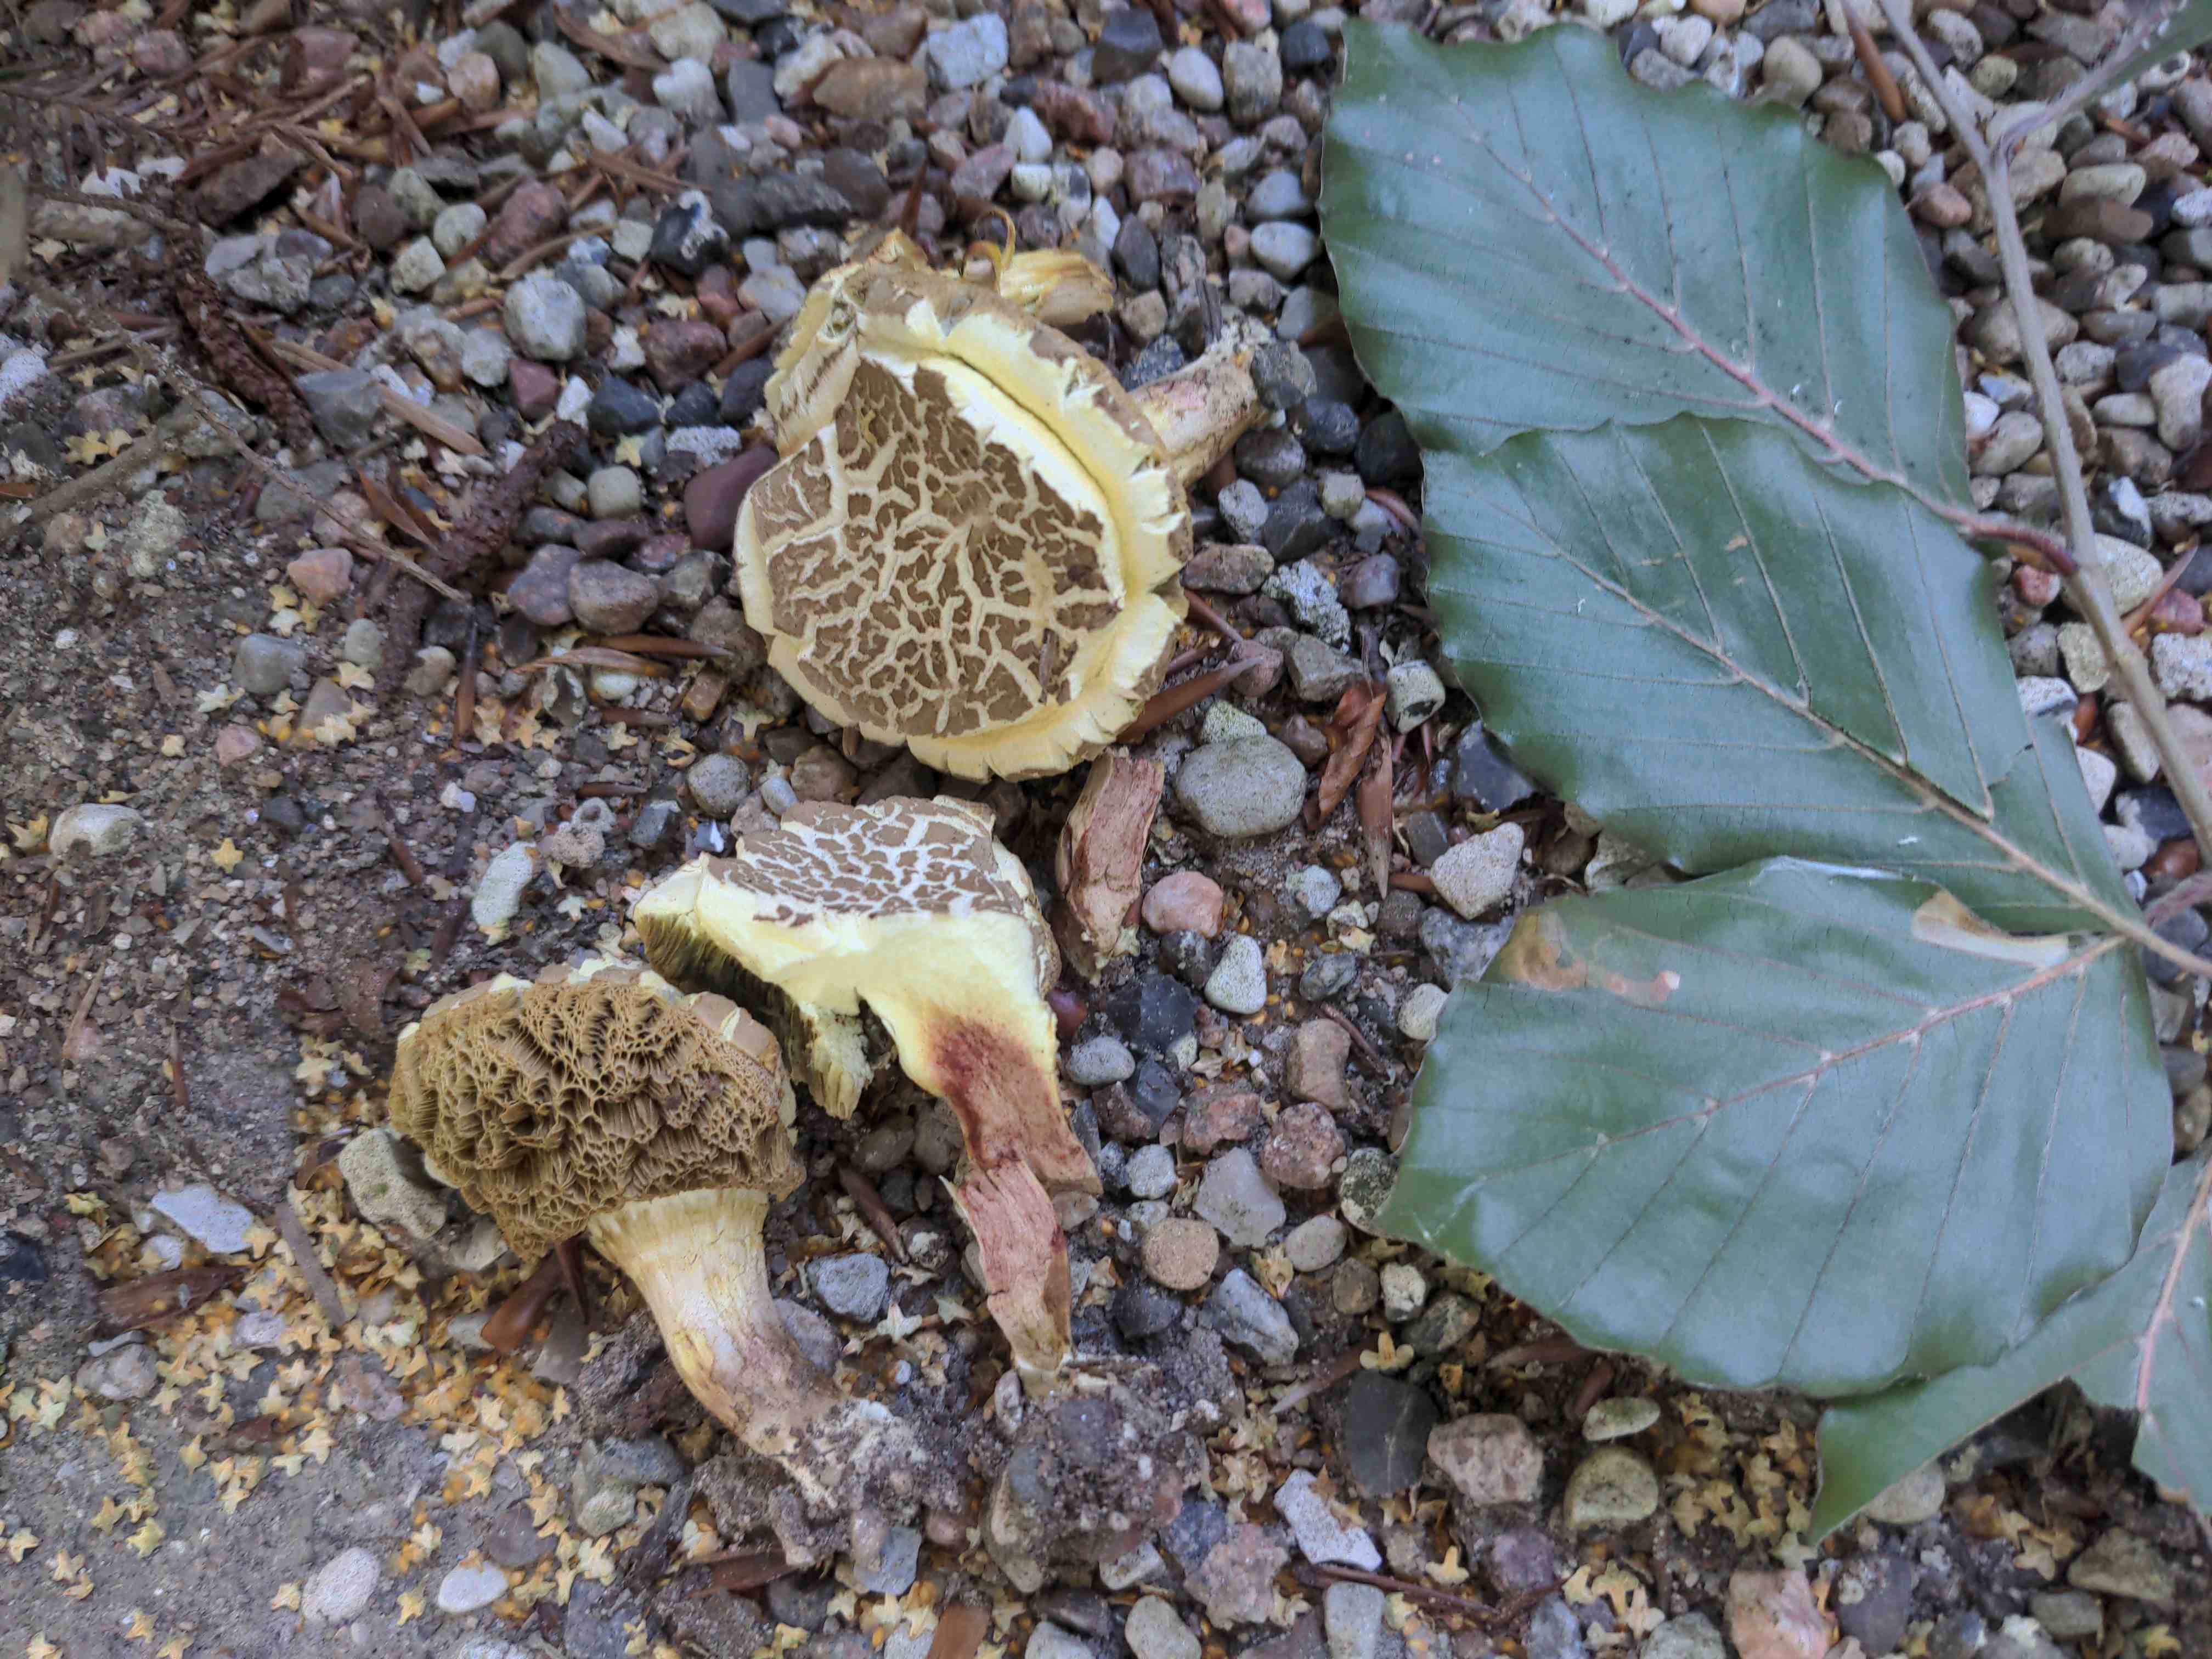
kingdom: Fungi
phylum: Basidiomycota
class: Agaricomycetes
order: Boletales
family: Boletaceae
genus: Xerocomellus
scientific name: Xerocomellus porosporus
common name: hvidsprukken rørhat
